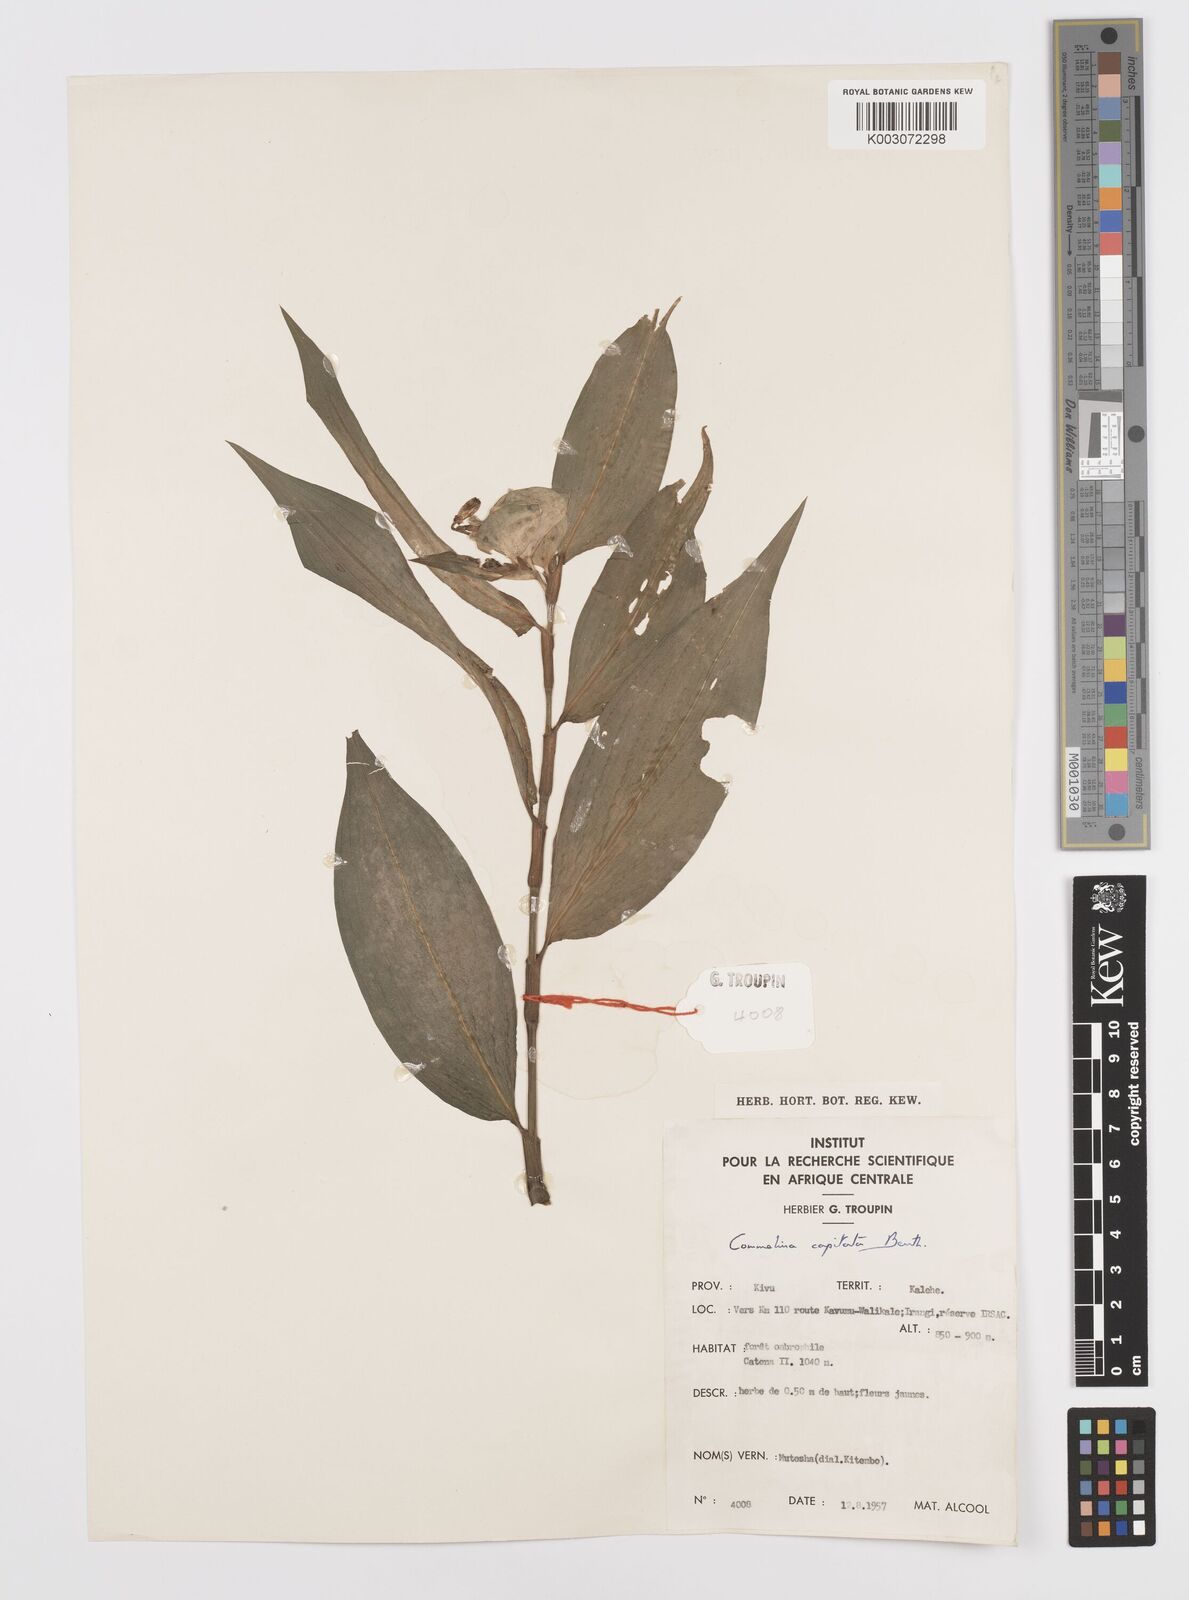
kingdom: Plantae
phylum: Tracheophyta
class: Liliopsida
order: Commelinales
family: Commelinaceae
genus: Commelina
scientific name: Commelina capitata
